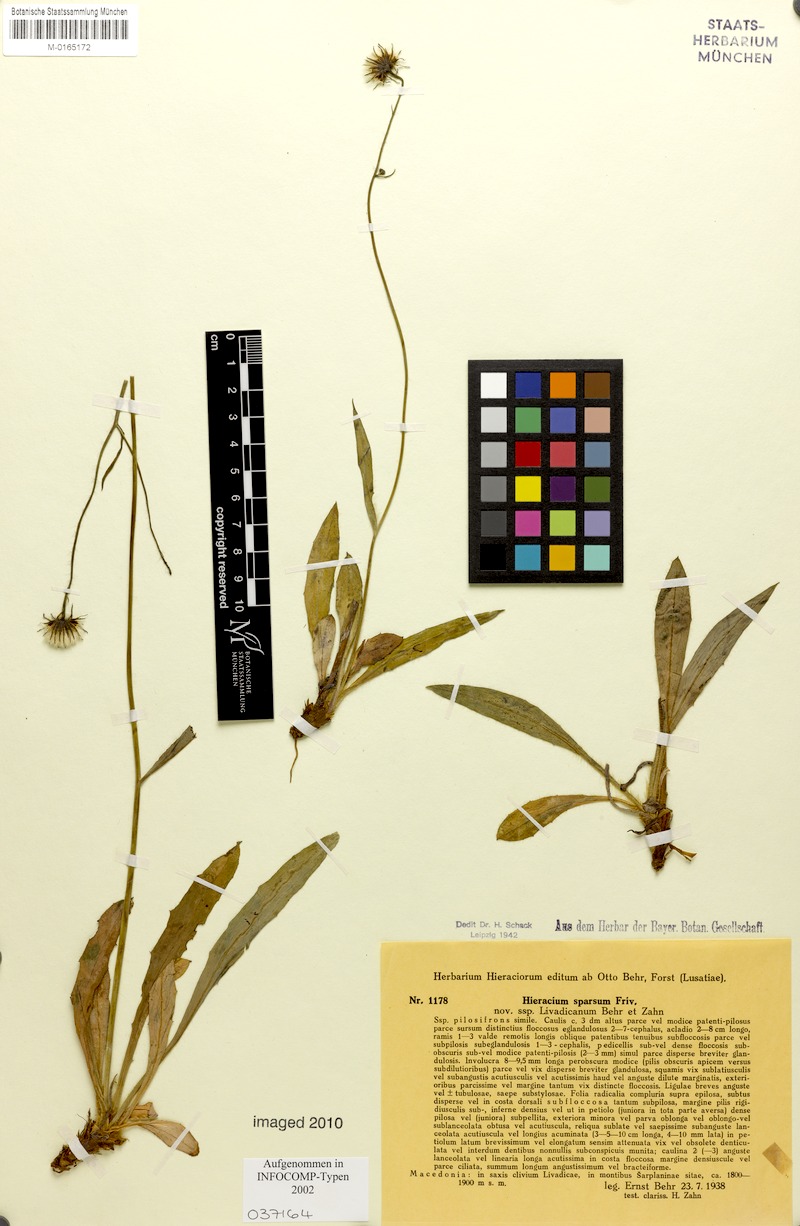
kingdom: Plantae
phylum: Tracheophyta
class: Magnoliopsida
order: Asterales
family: Asteraceae
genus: Hieracium
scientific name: Hieracium sparsum
